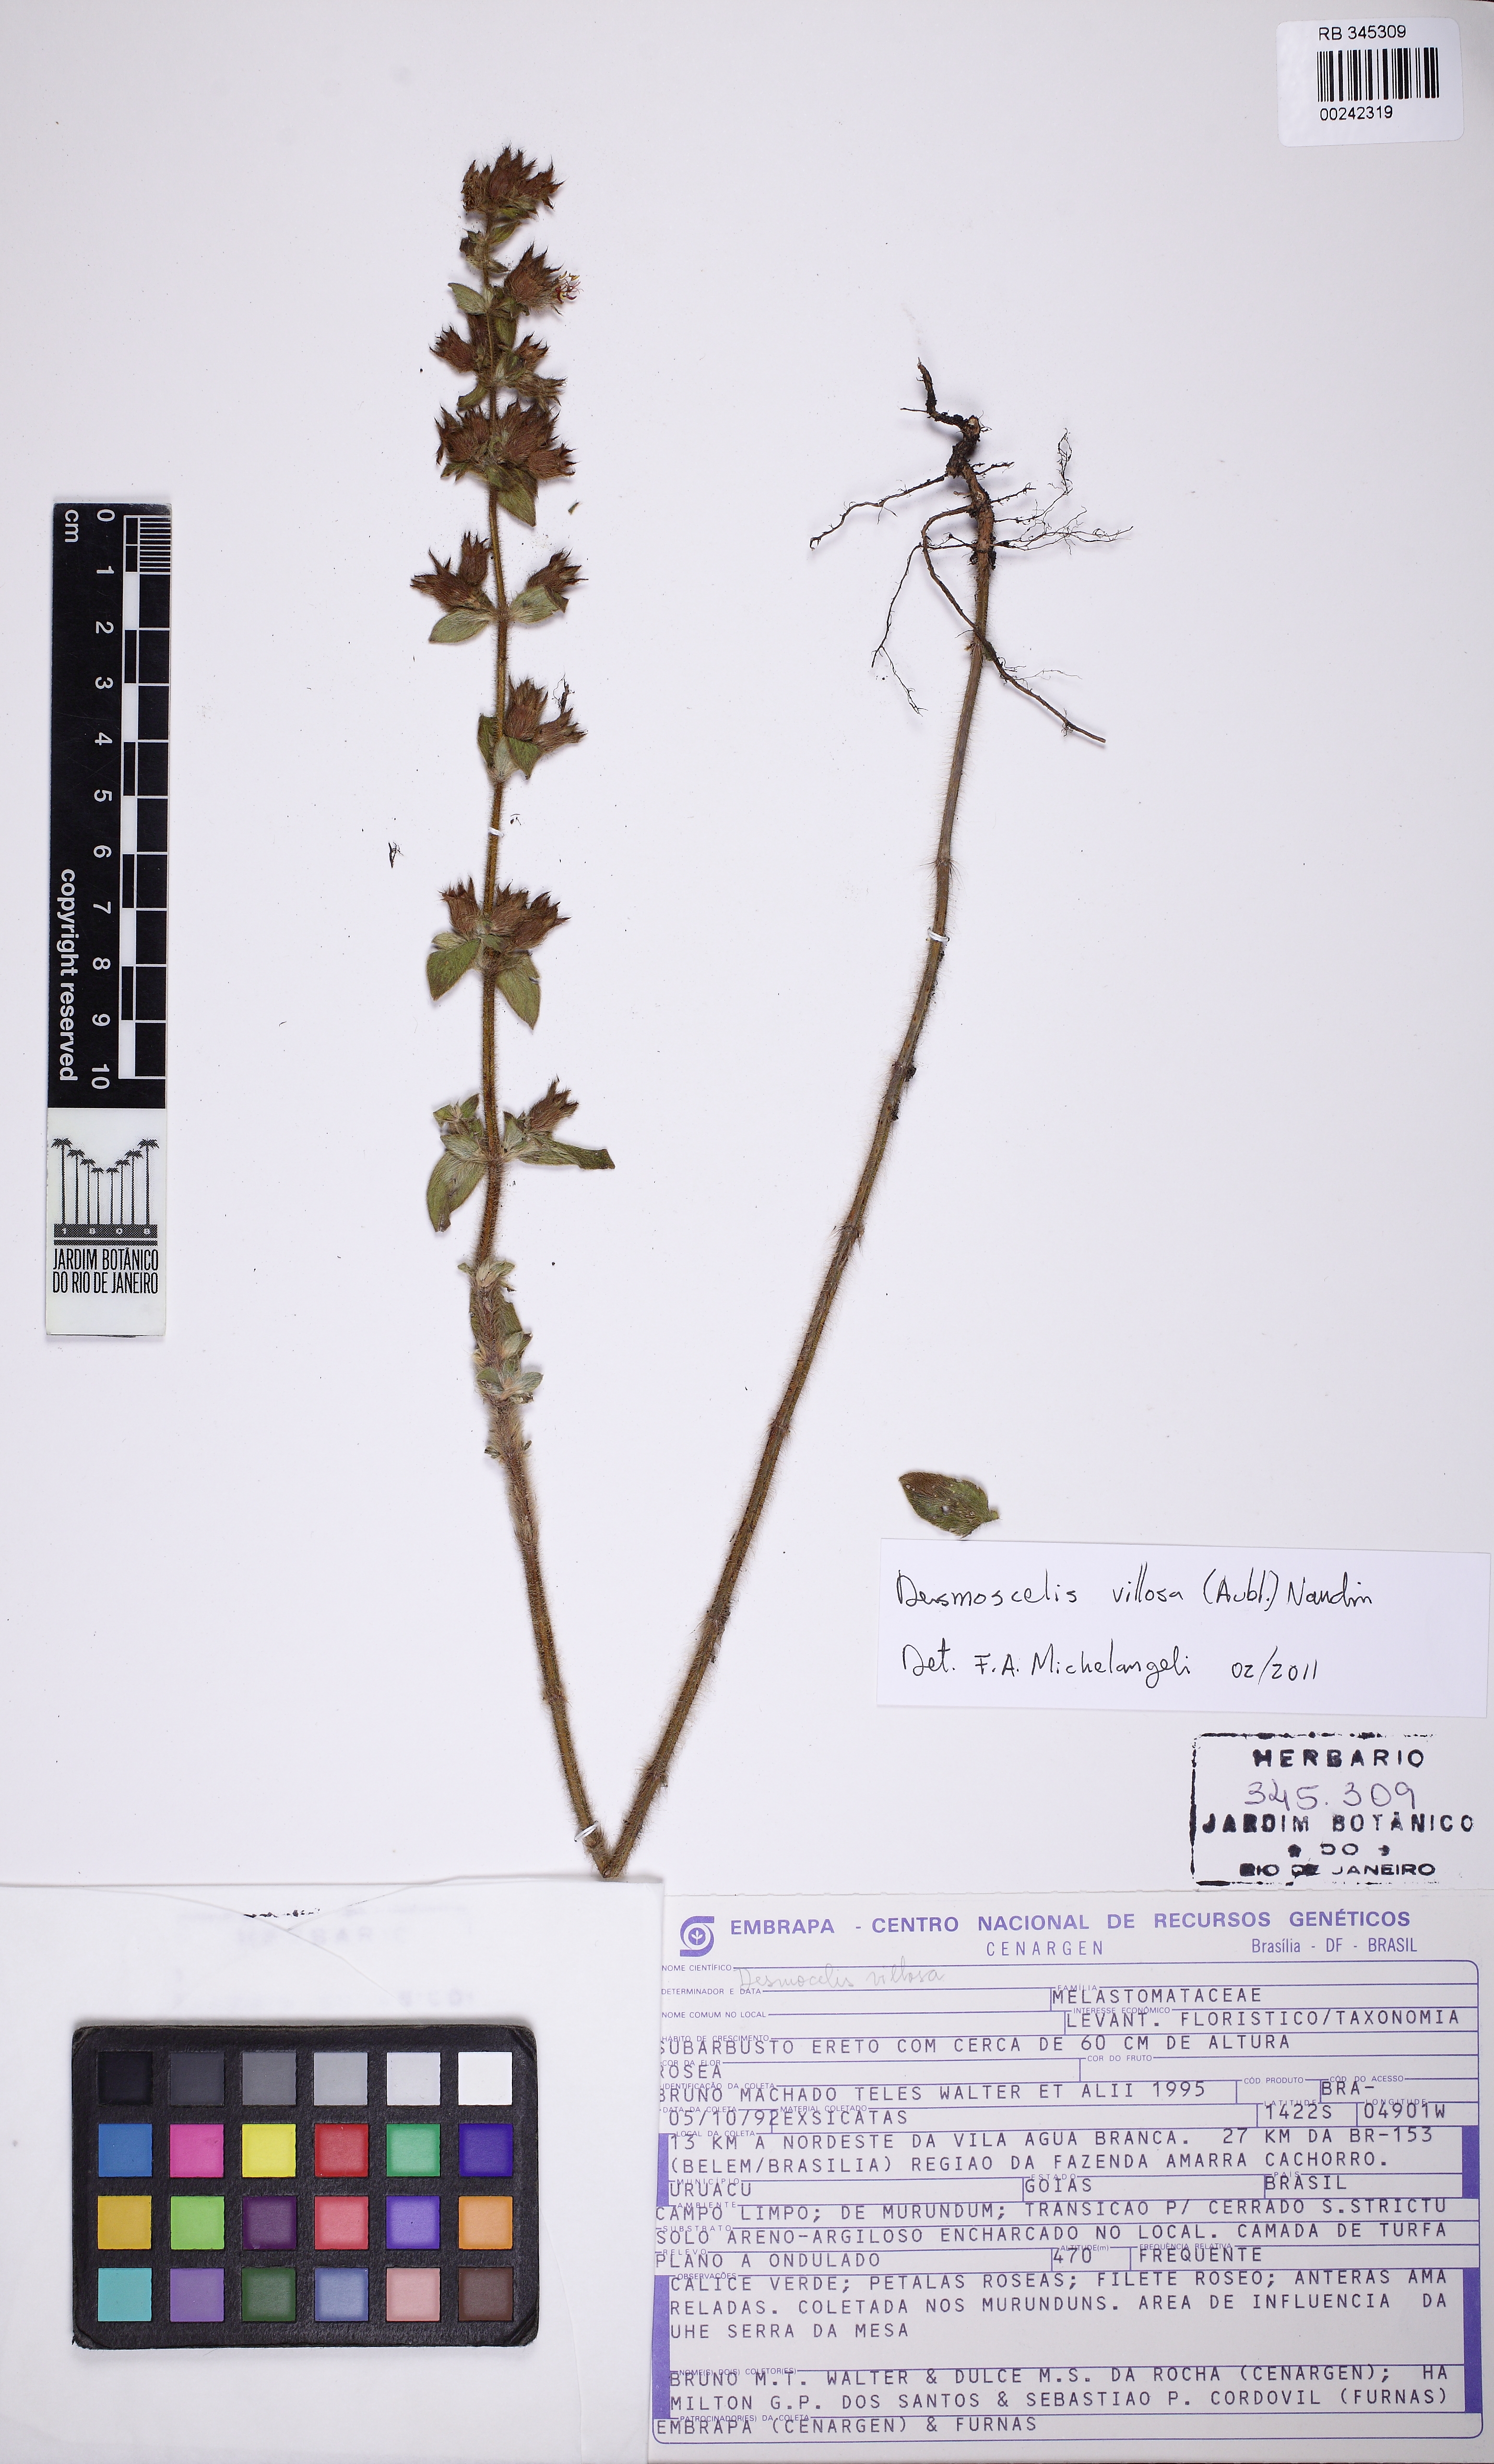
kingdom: Plantae
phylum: Tracheophyta
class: Magnoliopsida
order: Myrtales
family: Melastomataceae
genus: Desmoscelis
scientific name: Desmoscelis villosa
